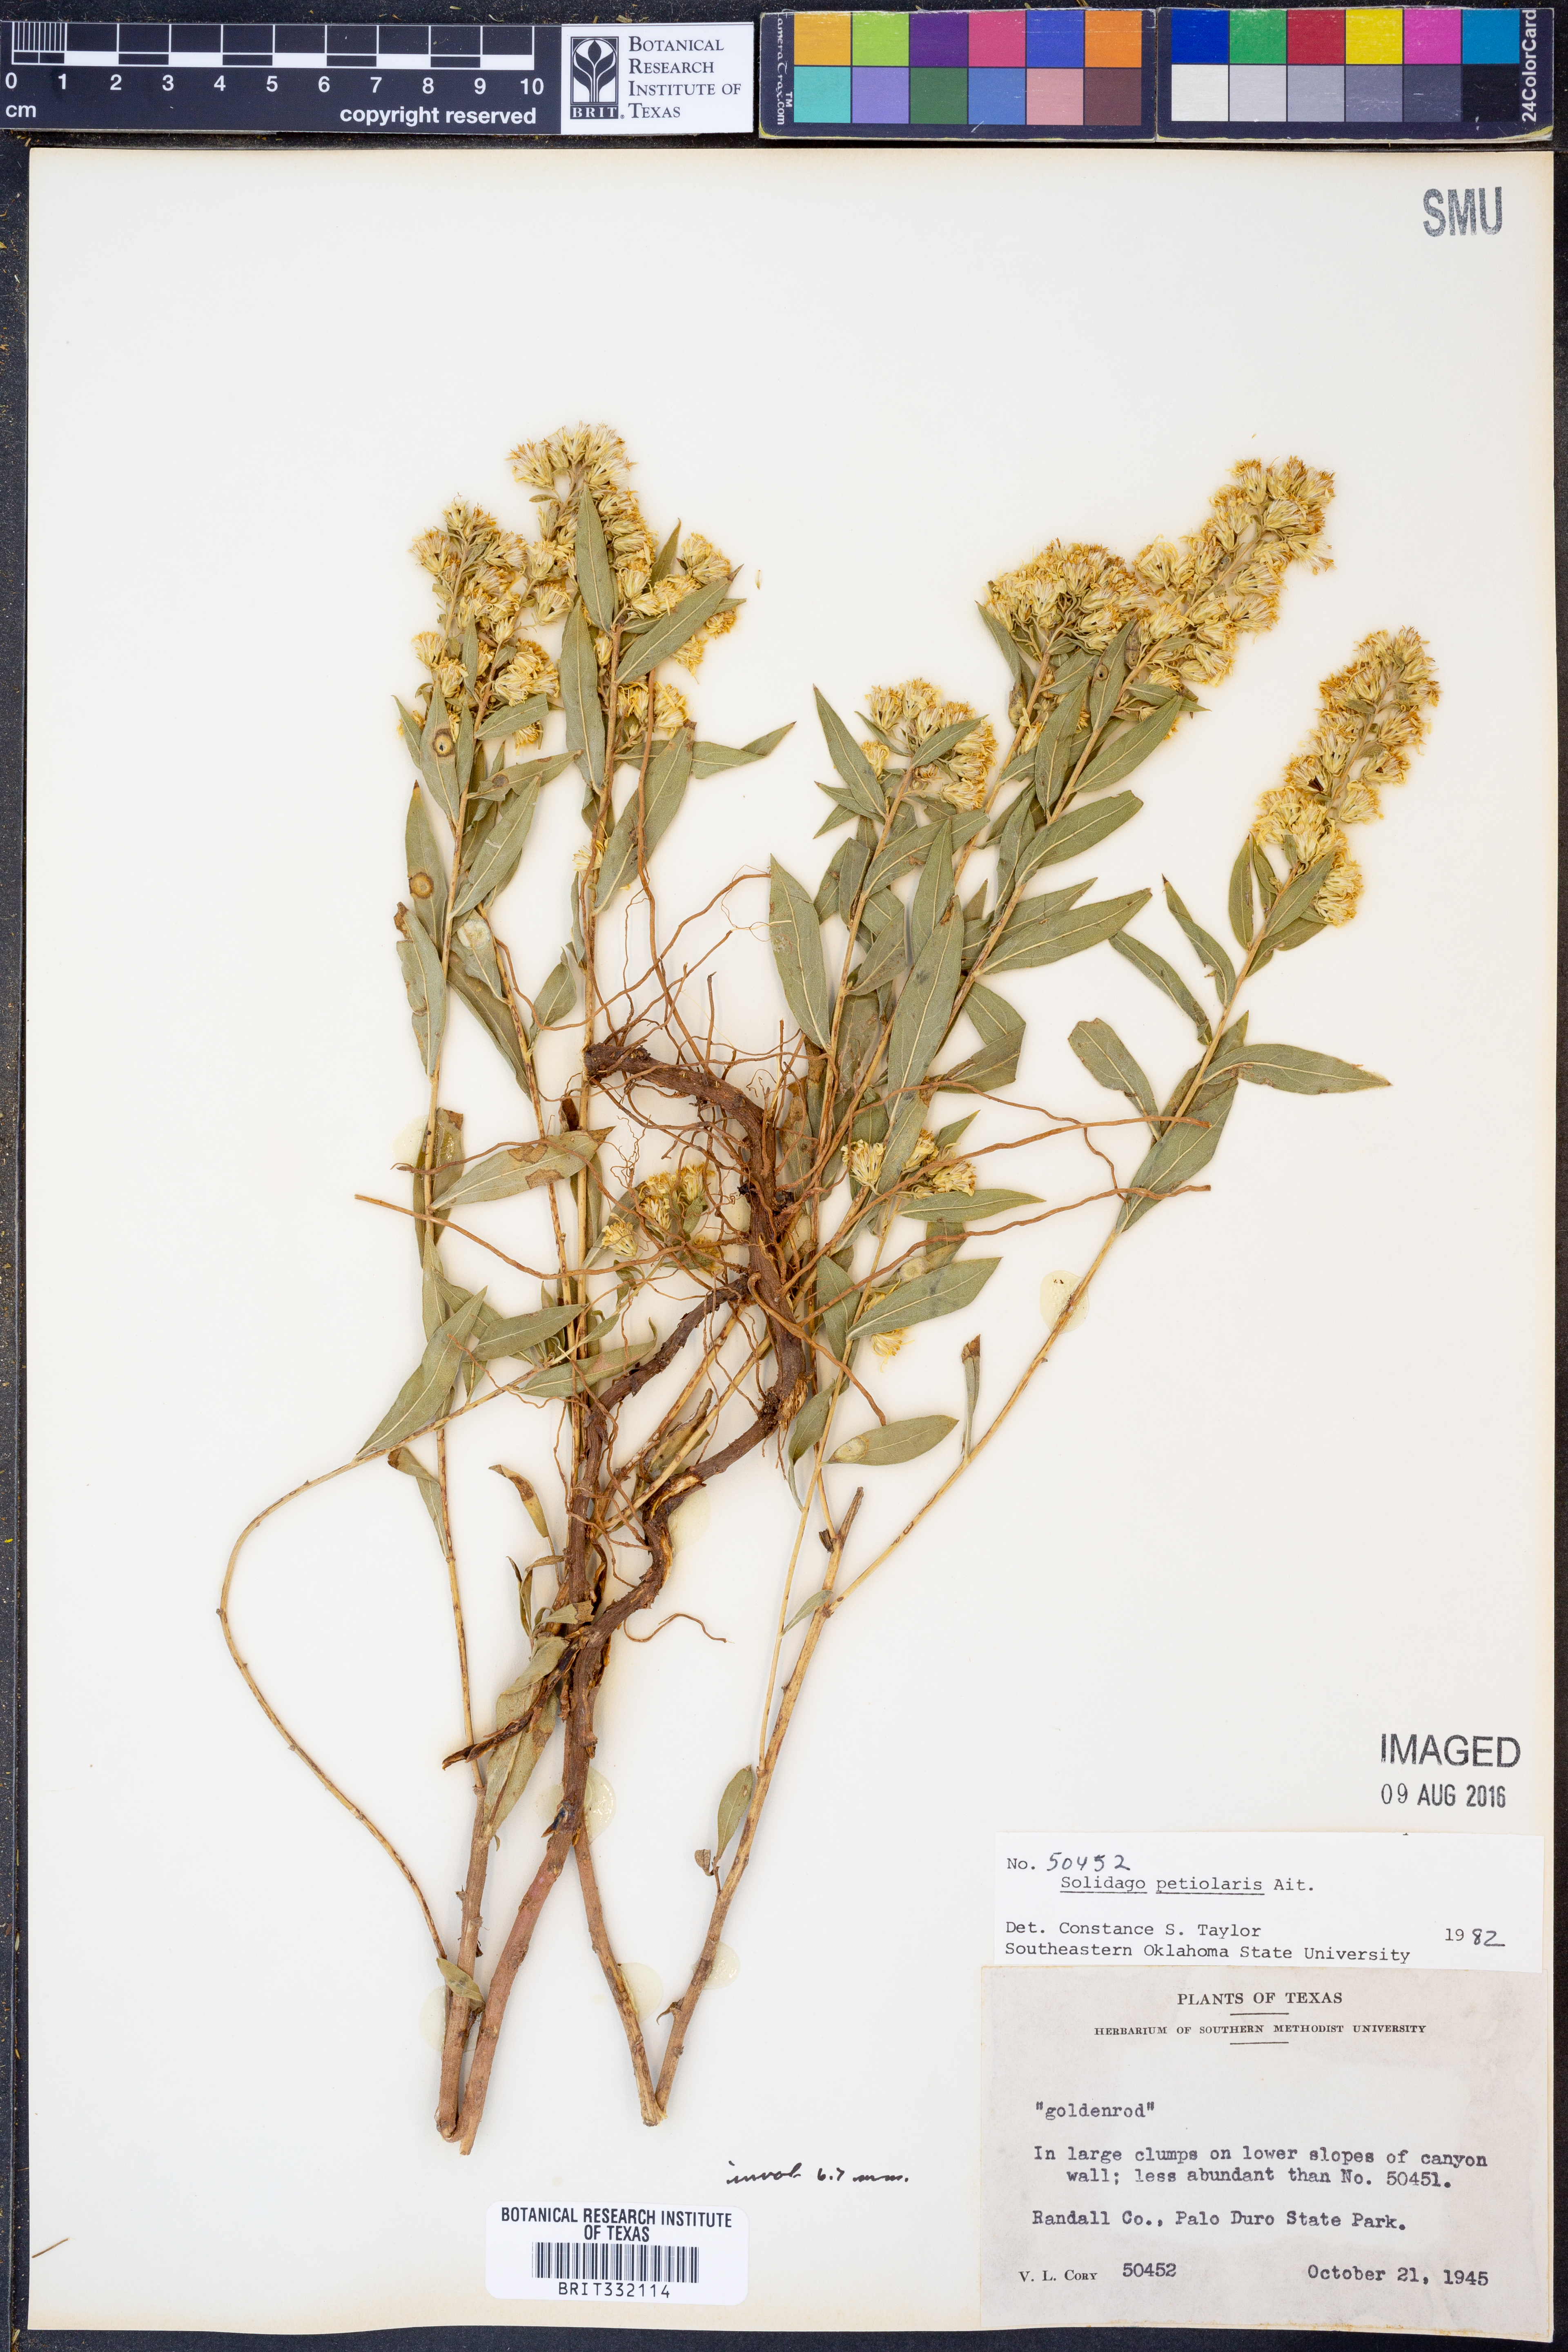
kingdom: Plantae
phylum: Tracheophyta
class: Magnoliopsida
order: Asterales
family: Asteraceae
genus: Solidago
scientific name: Solidago petiolaris
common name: Downy ragged goldenrod
